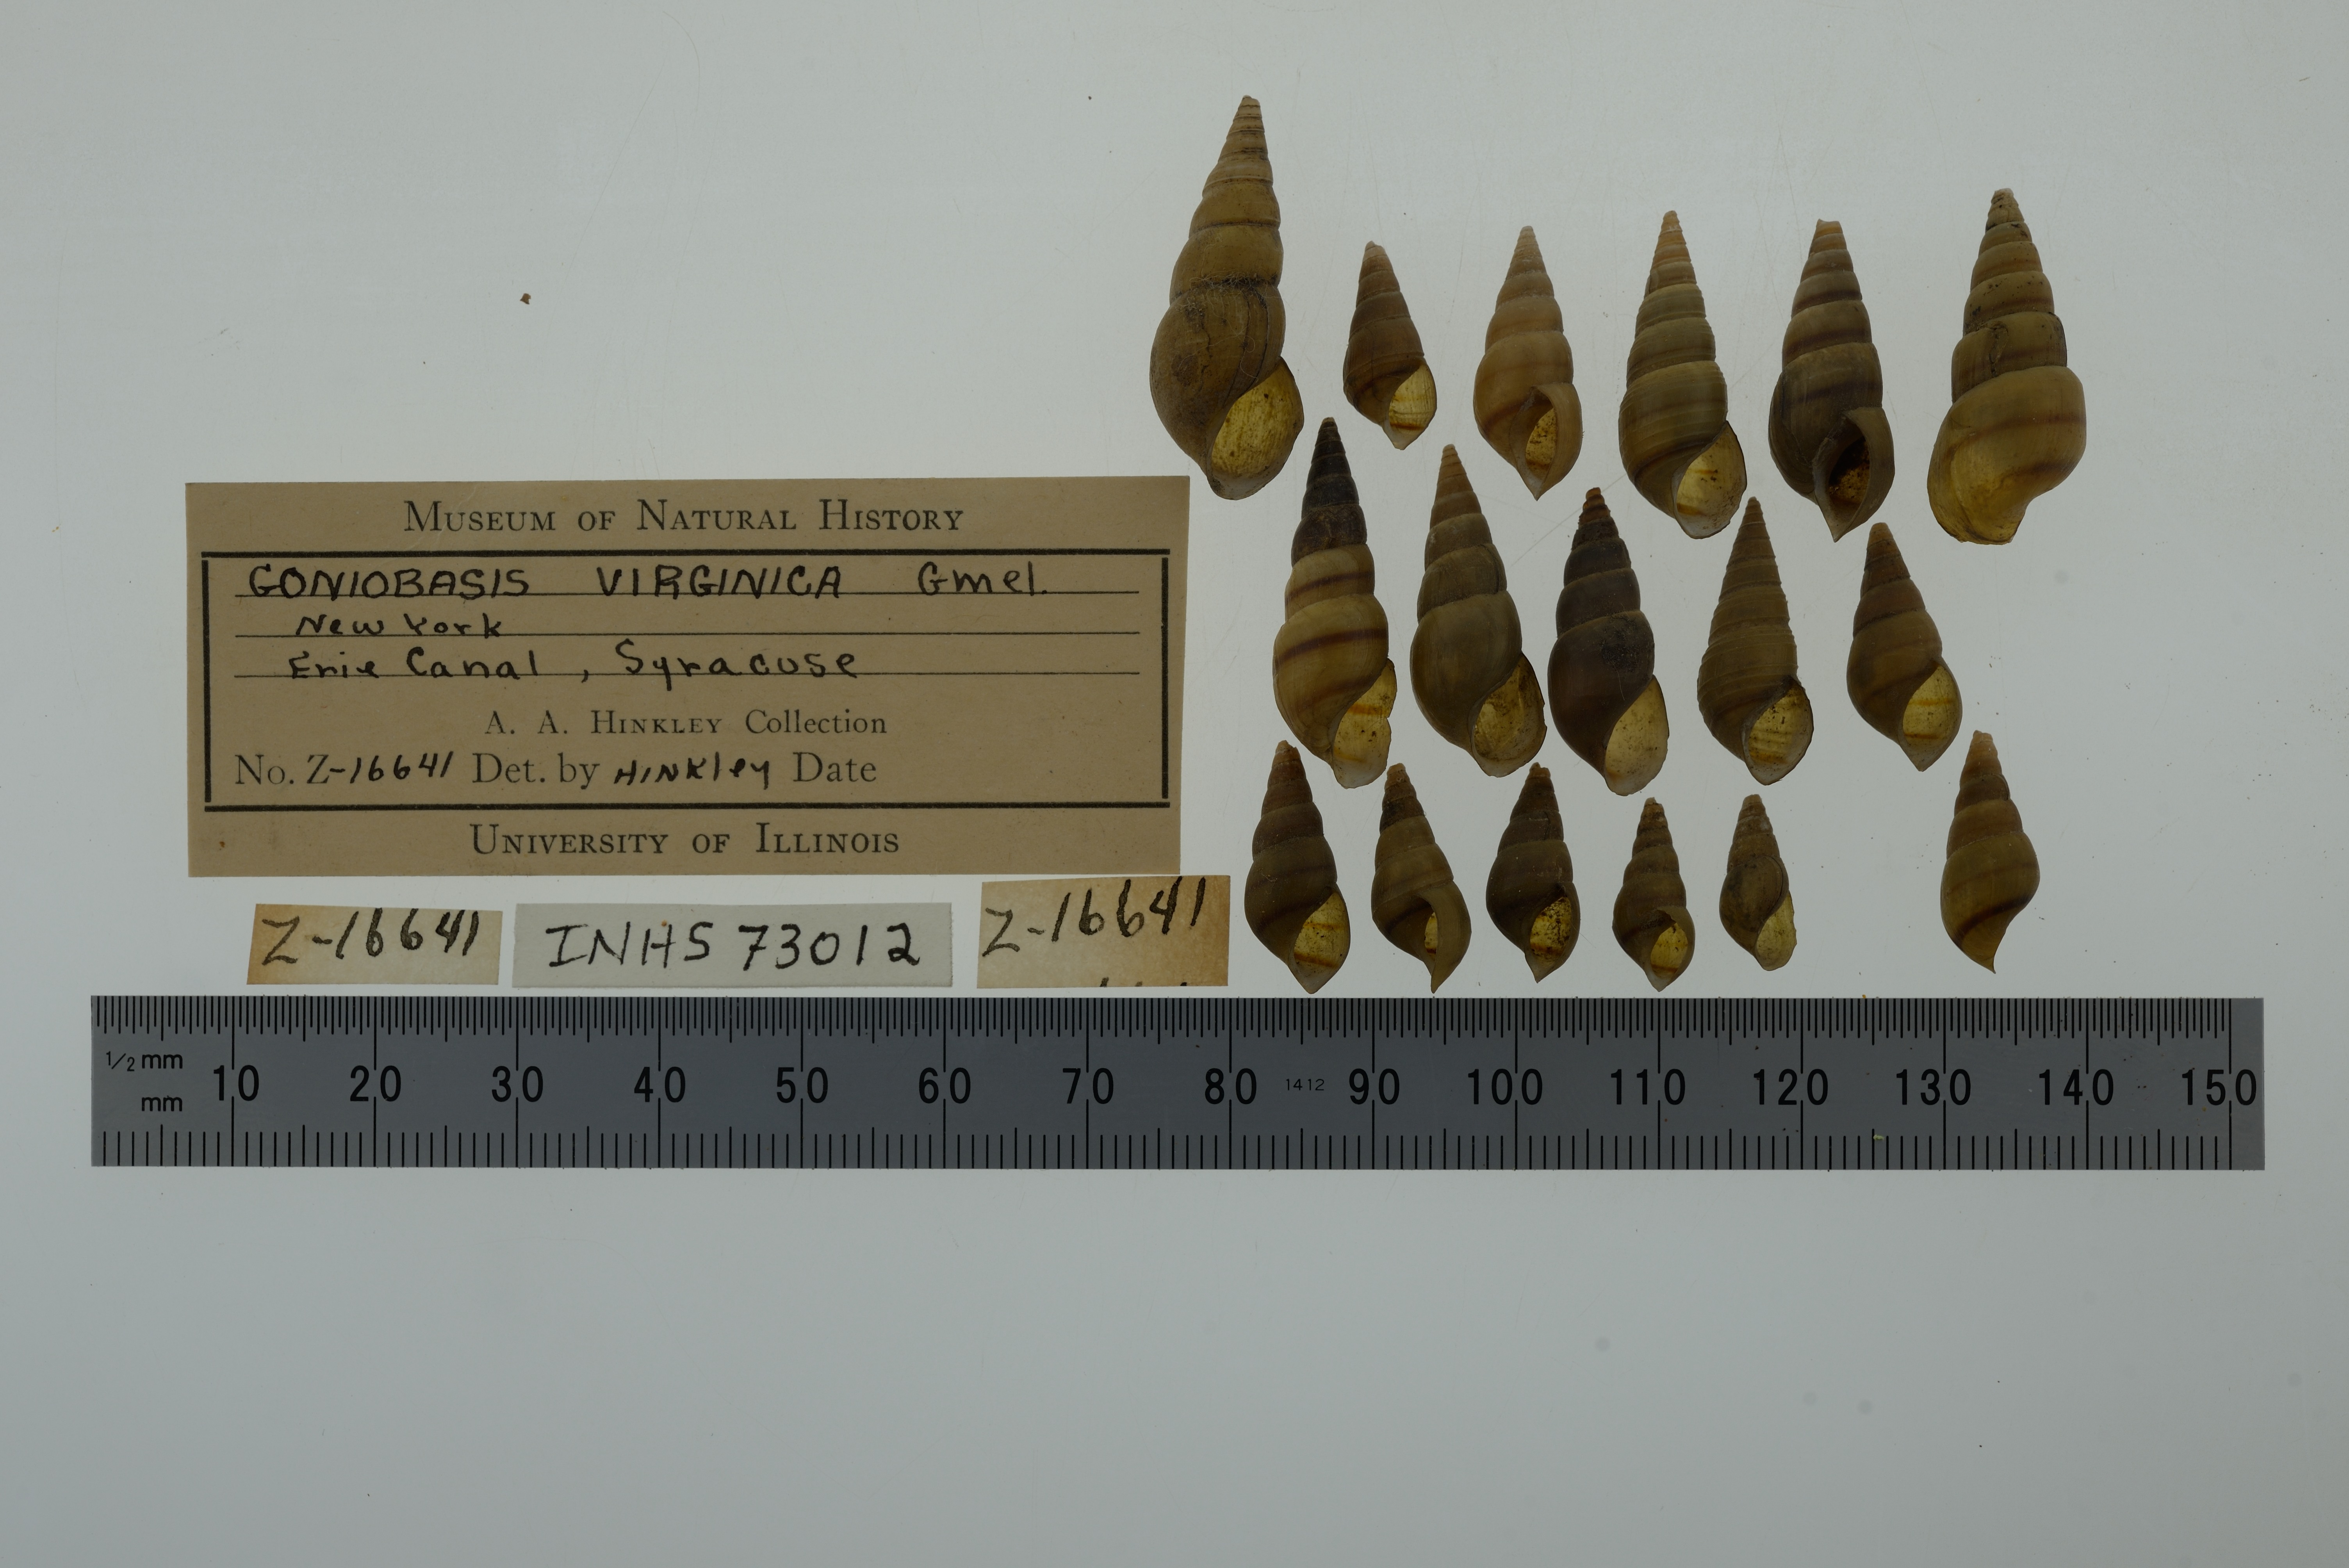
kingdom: Animalia
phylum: Mollusca
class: Gastropoda
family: Pleuroceridae
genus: Elimia
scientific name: Elimia virginica
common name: Piedmont elimia
